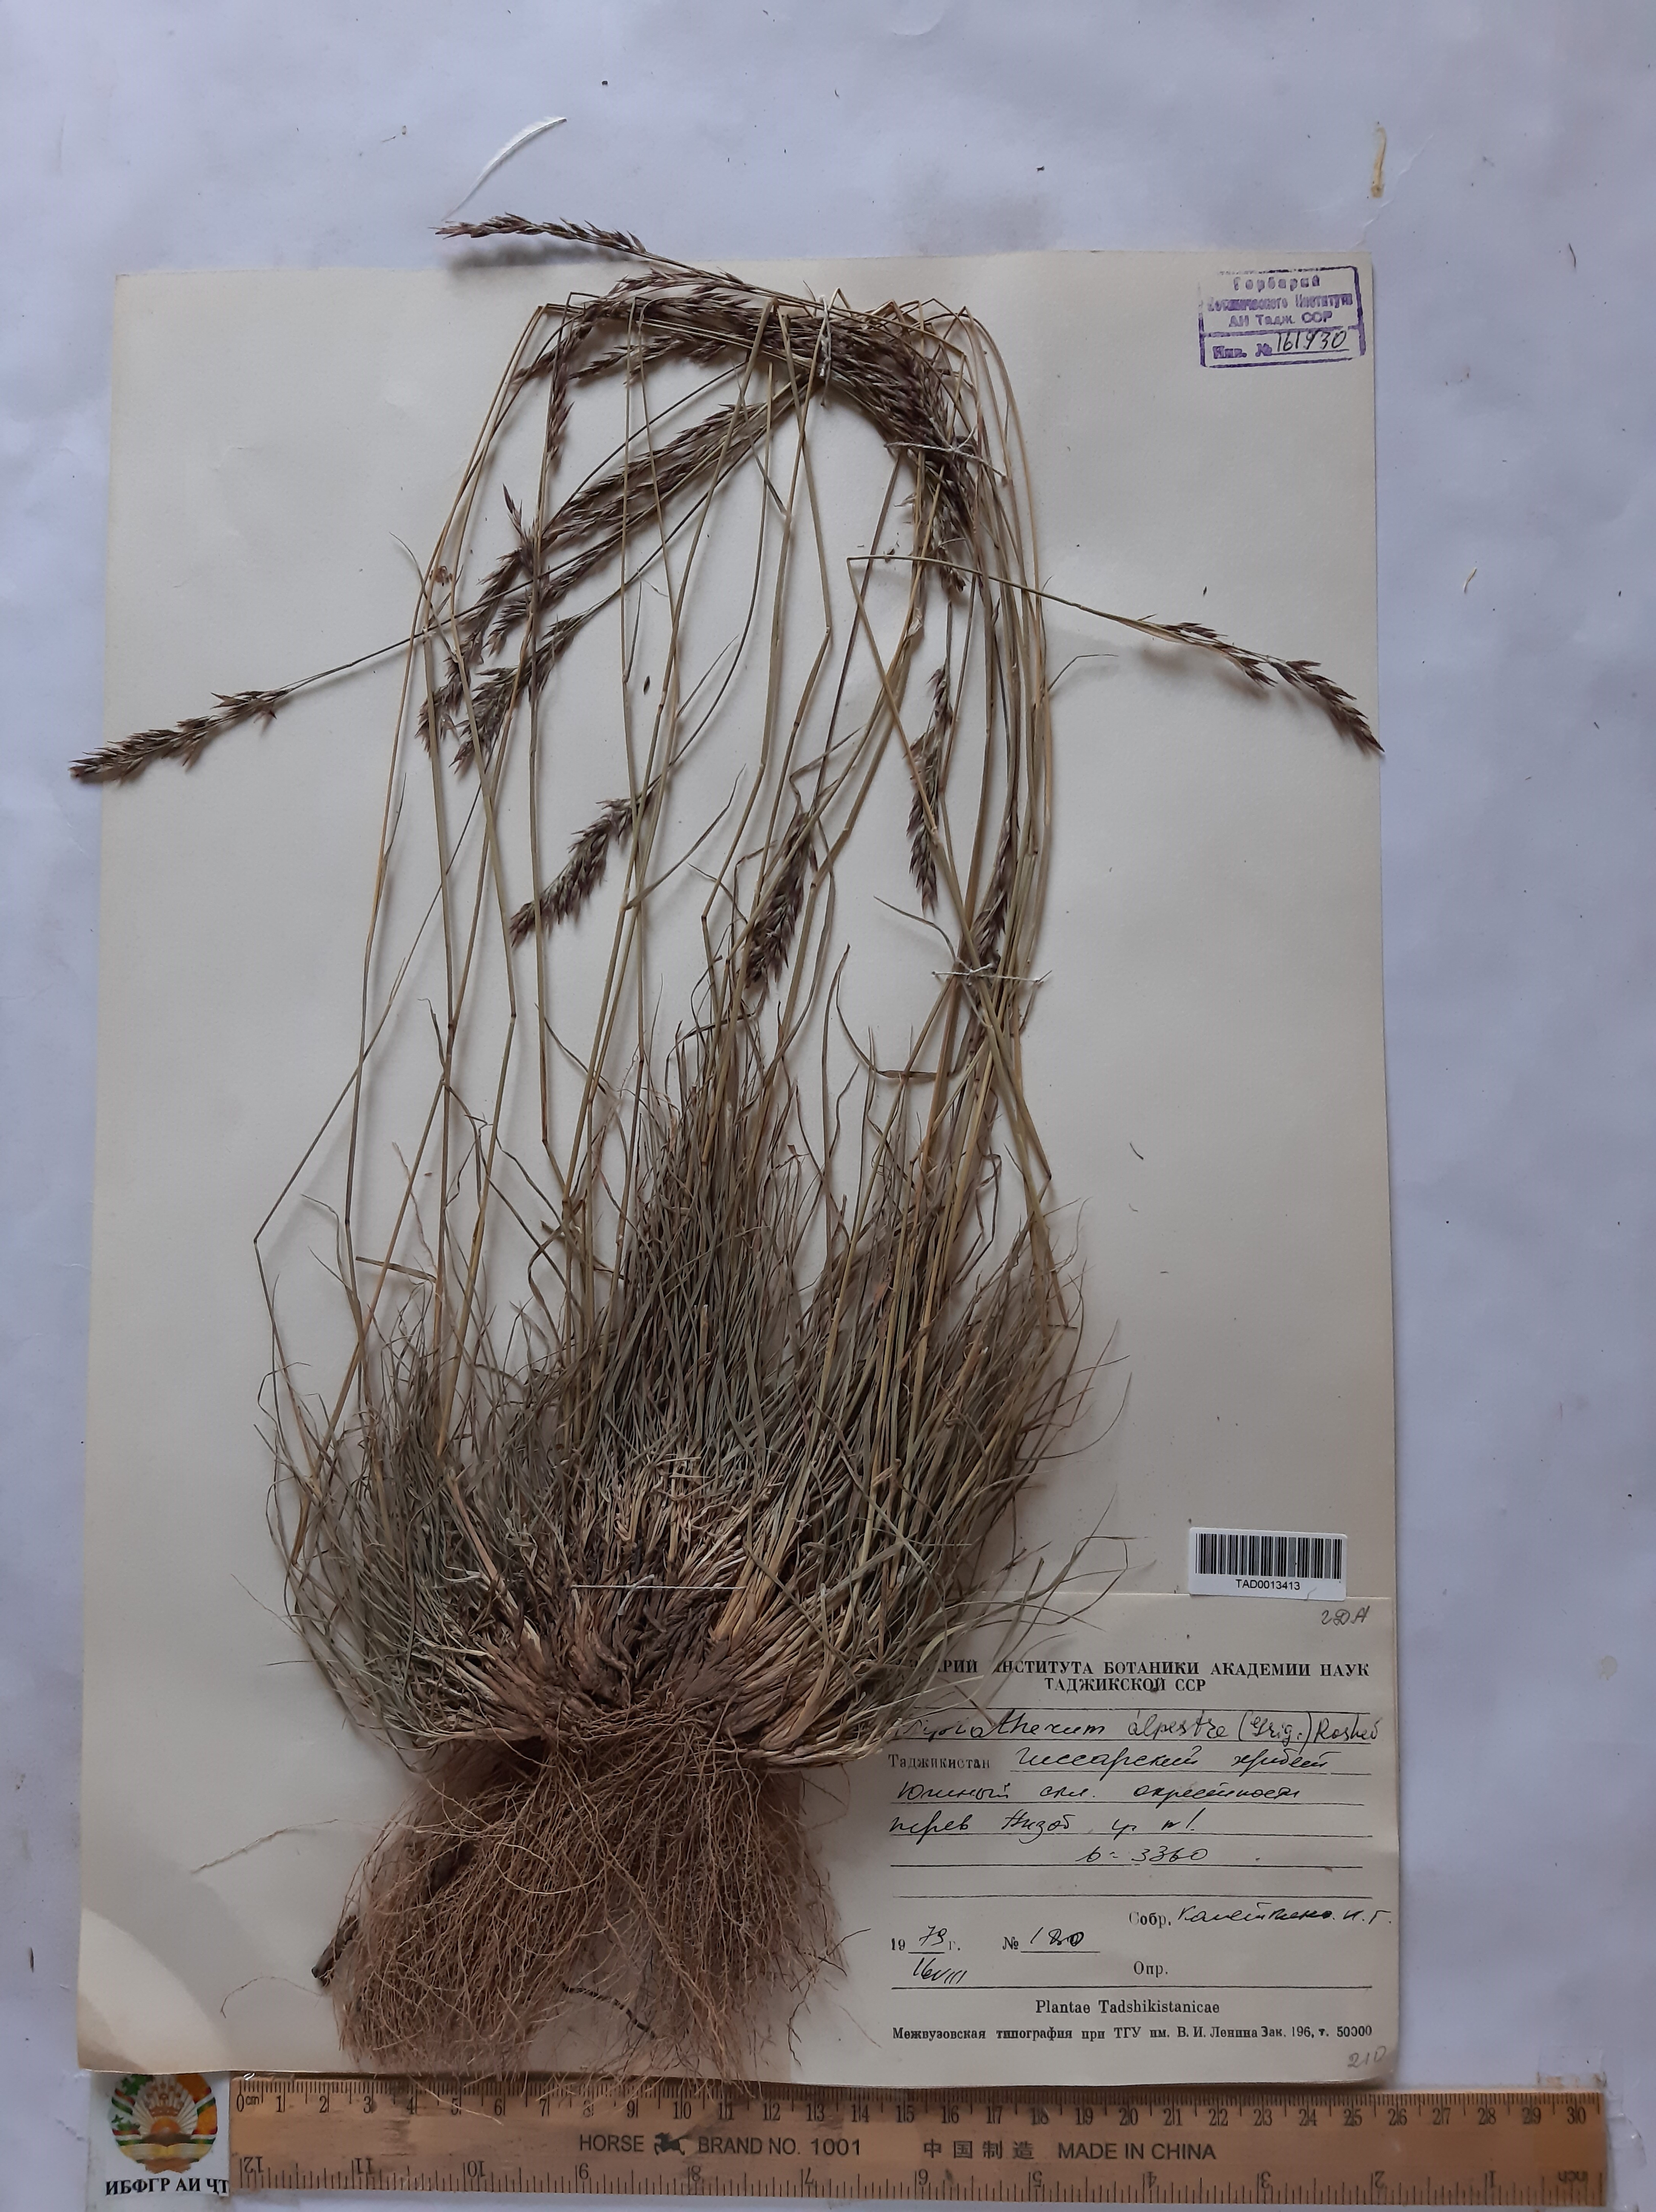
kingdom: Plantae
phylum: Tracheophyta
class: Liliopsida
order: Poales
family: Poaceae
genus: Piptatherum
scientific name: Piptatherum alpestre
